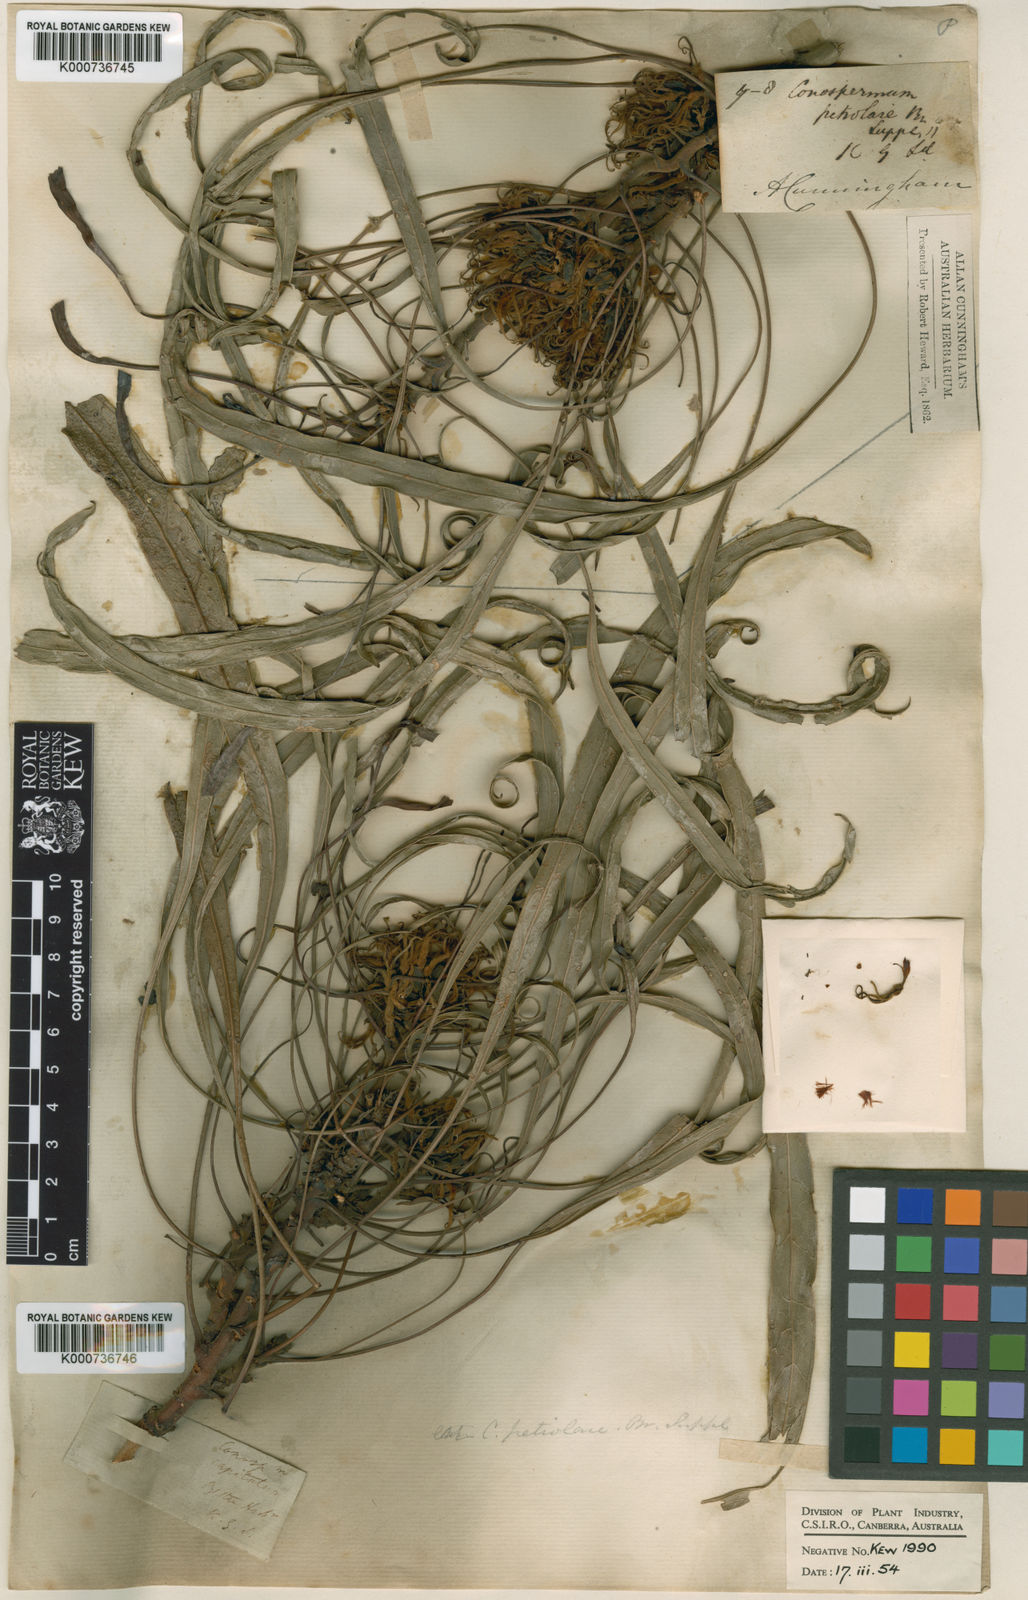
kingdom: Plantae
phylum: Tracheophyta
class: Magnoliopsida
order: Proteales
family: Proteaceae
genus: Conospermum
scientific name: Conospermum petiolare
